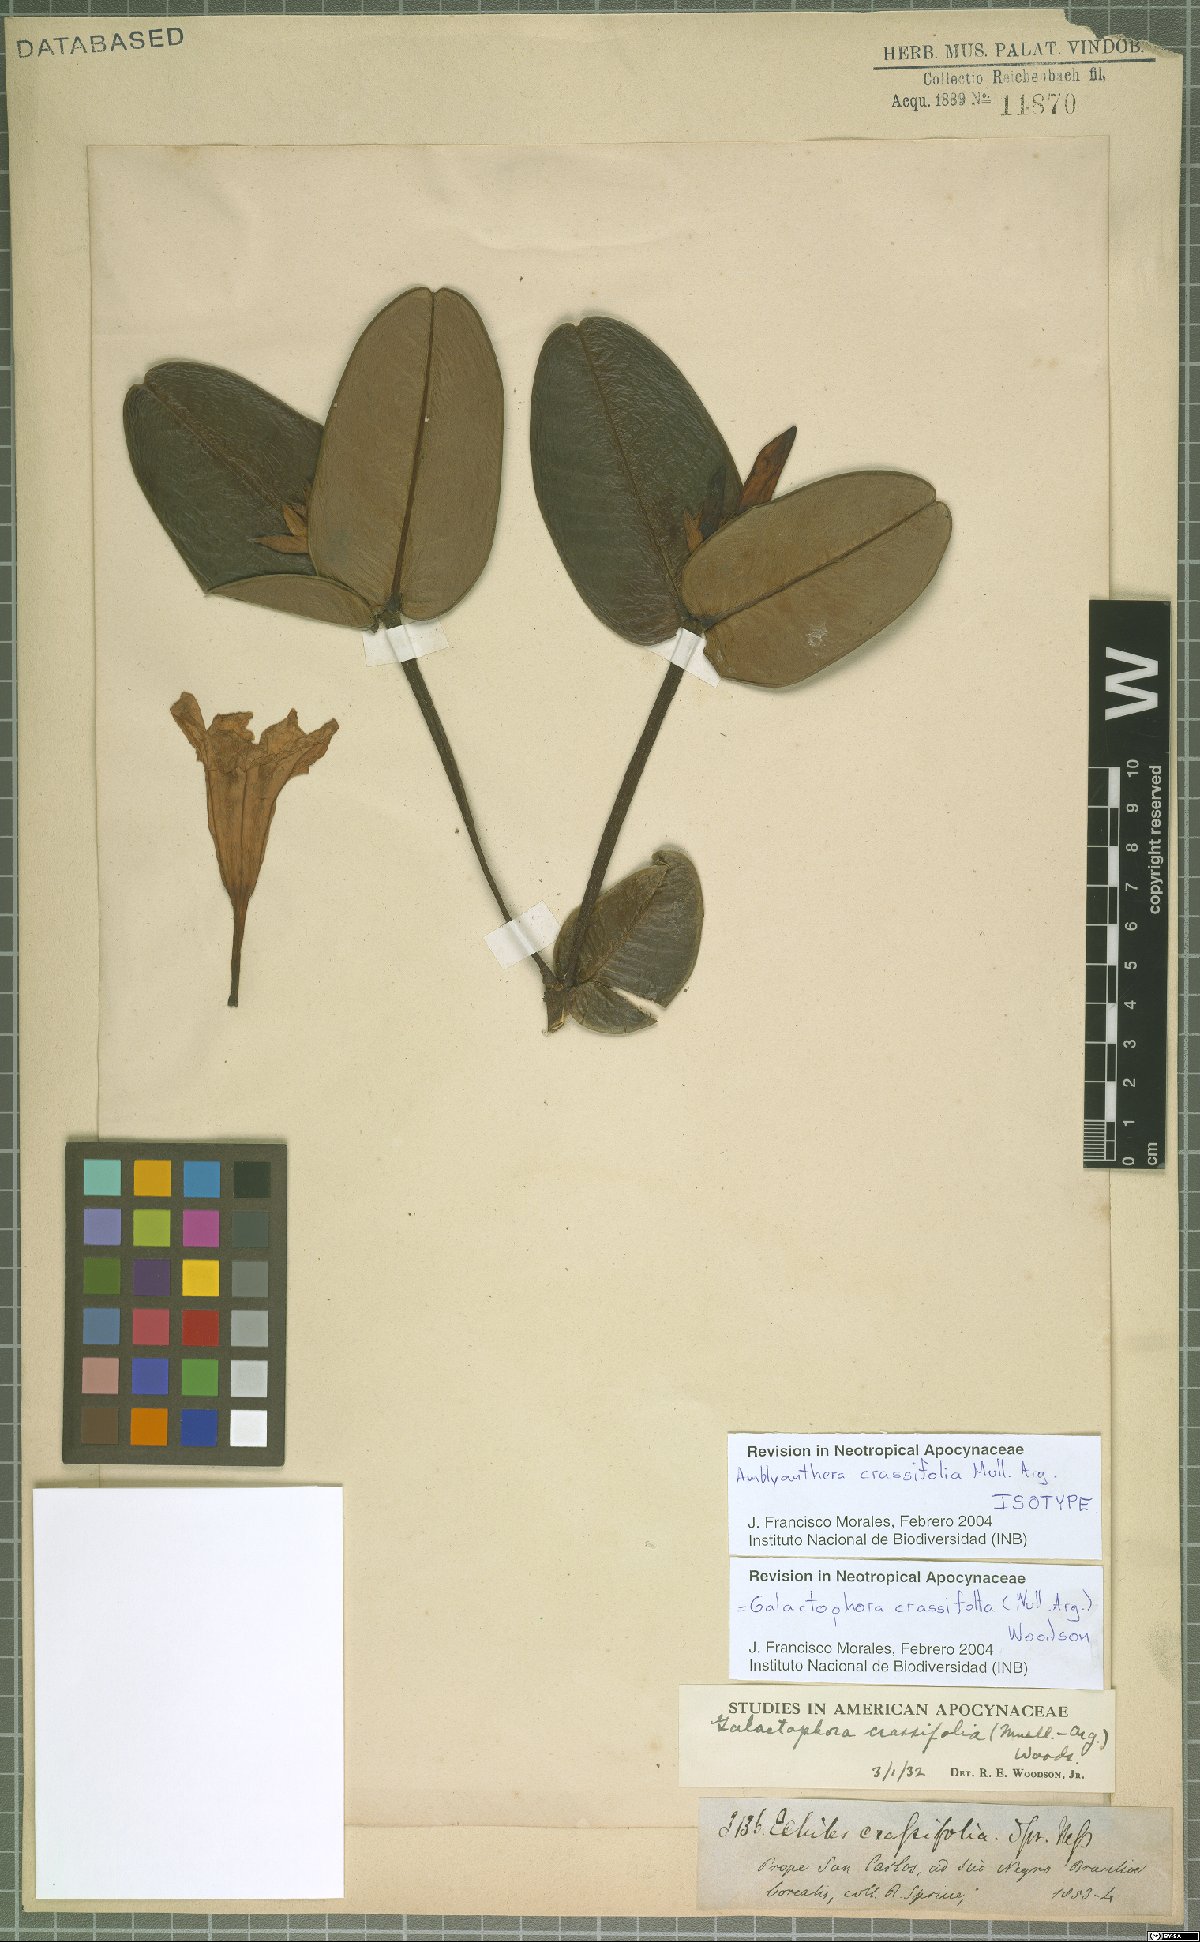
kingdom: Plantae
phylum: Tracheophyta
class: Magnoliopsida
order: Gentianales
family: Apocynaceae
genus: Galactophora
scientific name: Galactophora crassifolia
